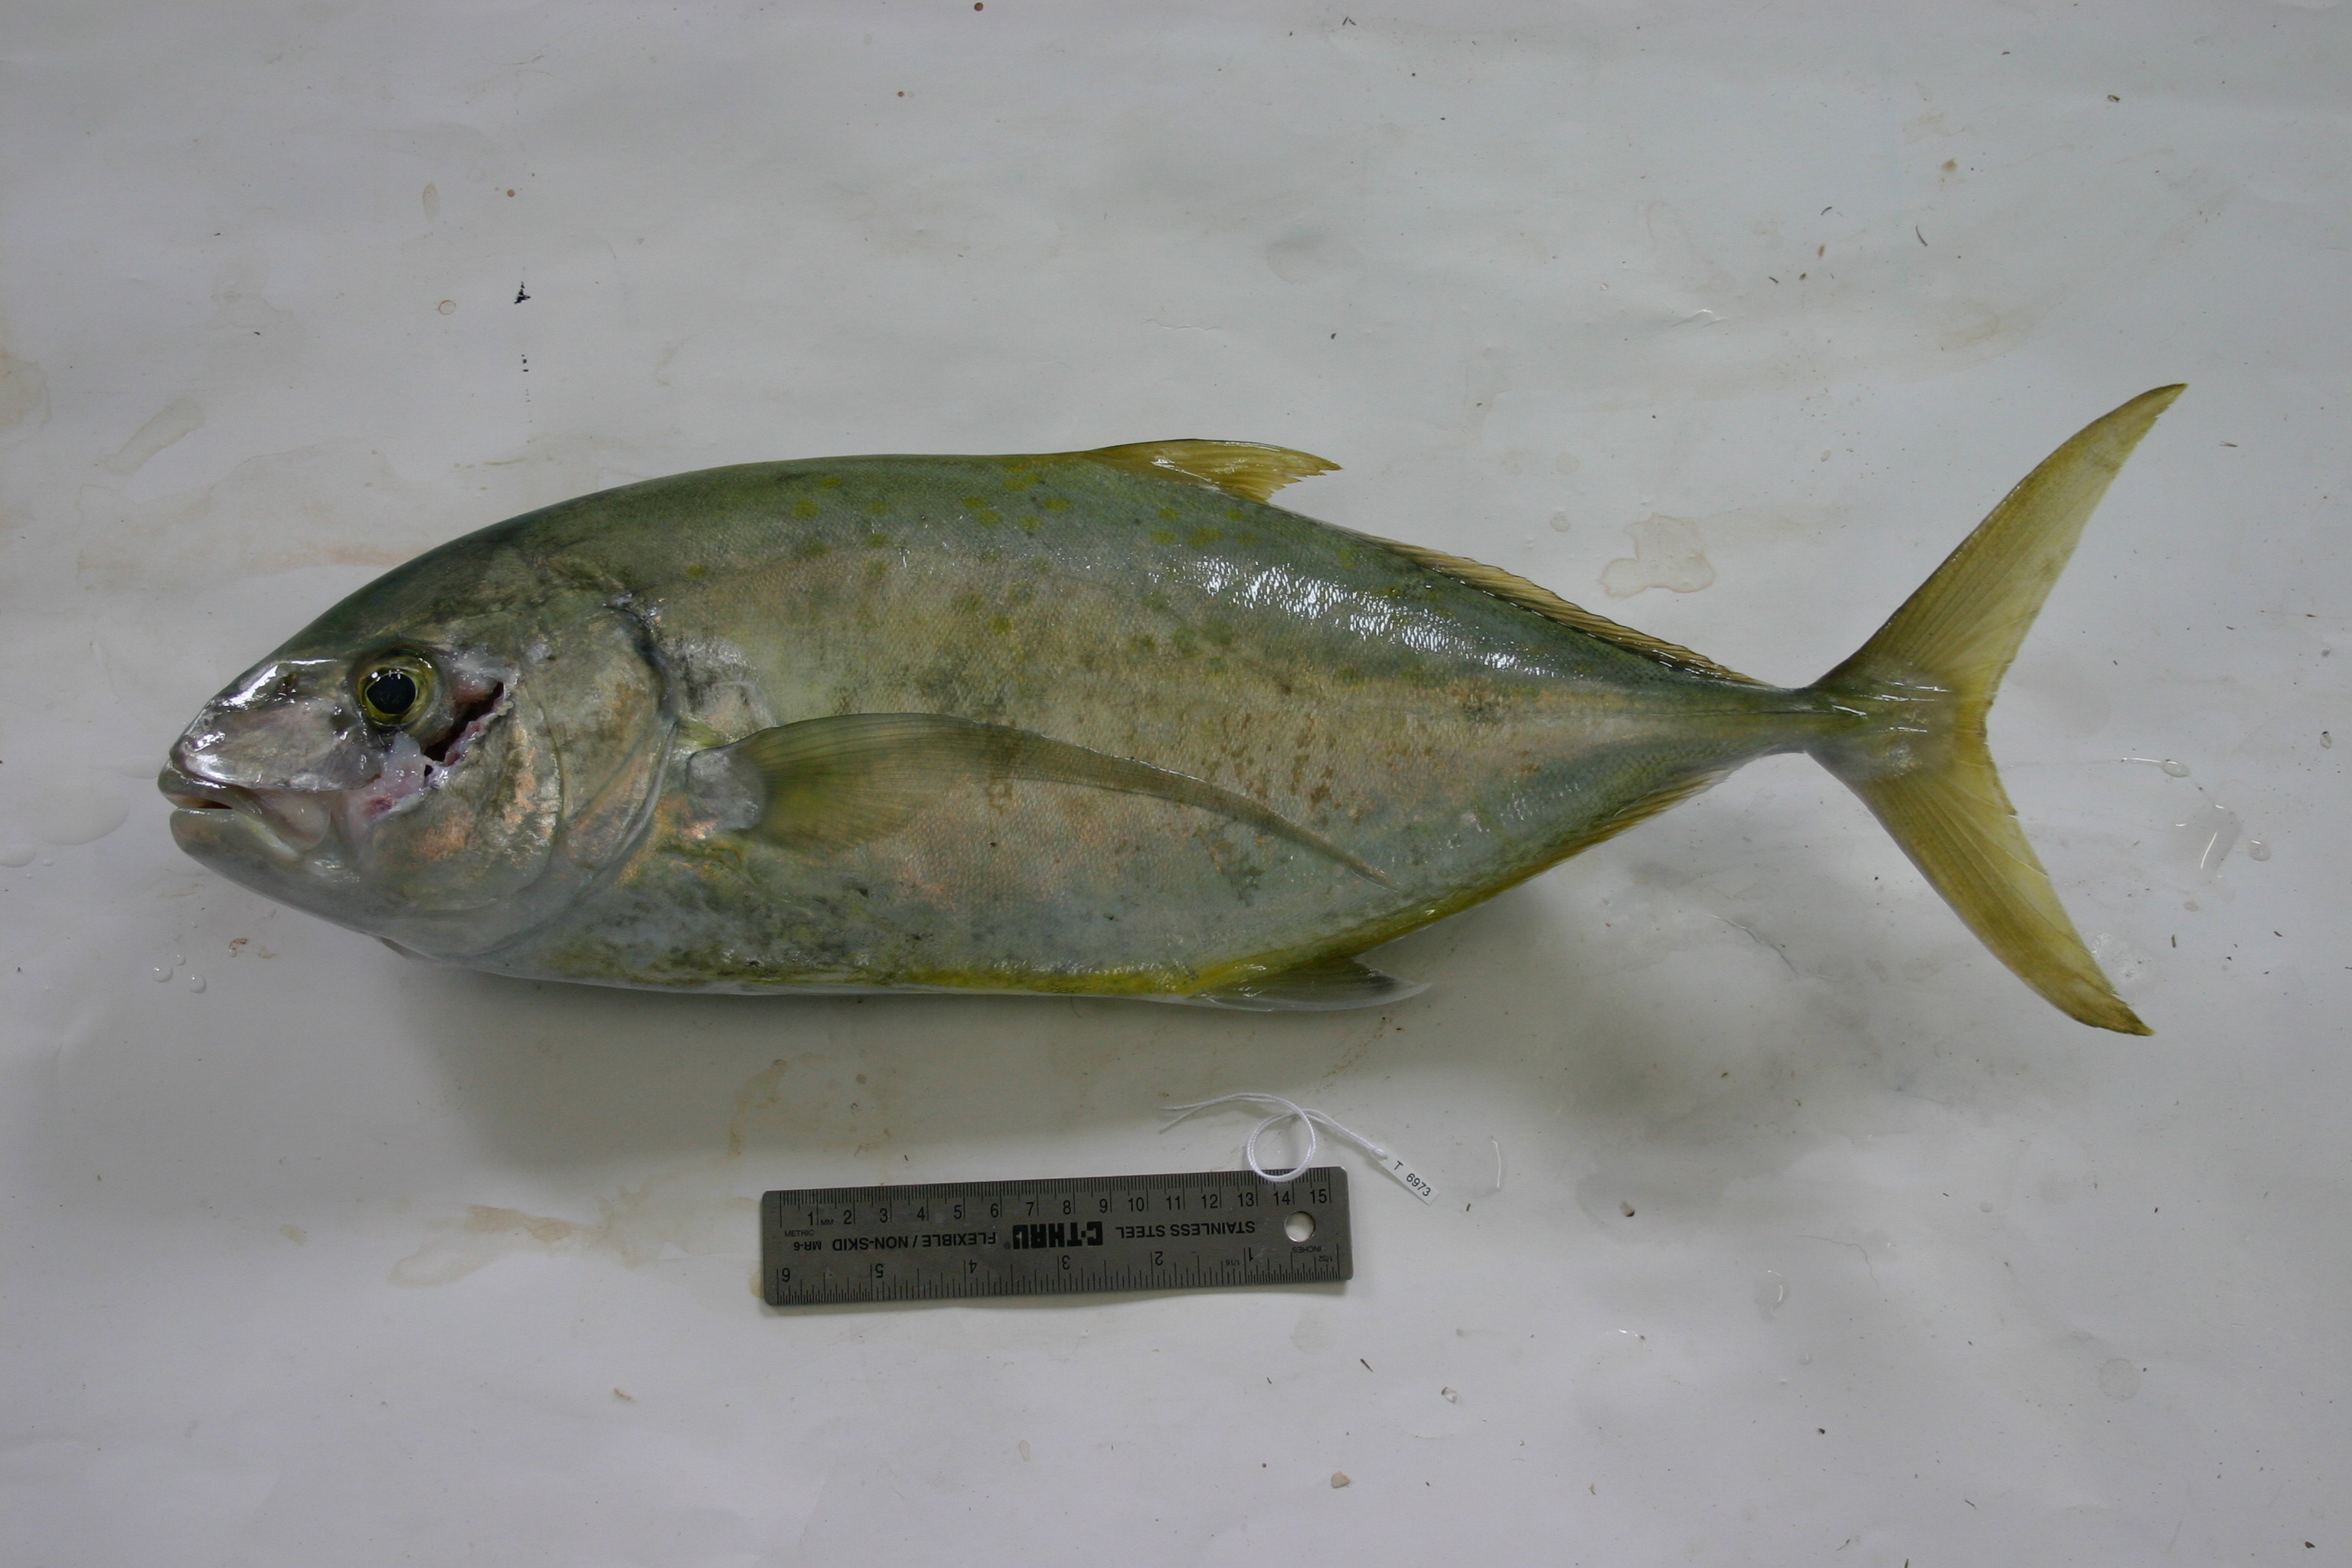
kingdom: Animalia
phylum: Chordata
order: Perciformes
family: Carangidae
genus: Carangoides
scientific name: Carangoides fulvoguttatus
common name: Yellowspotted trevally
